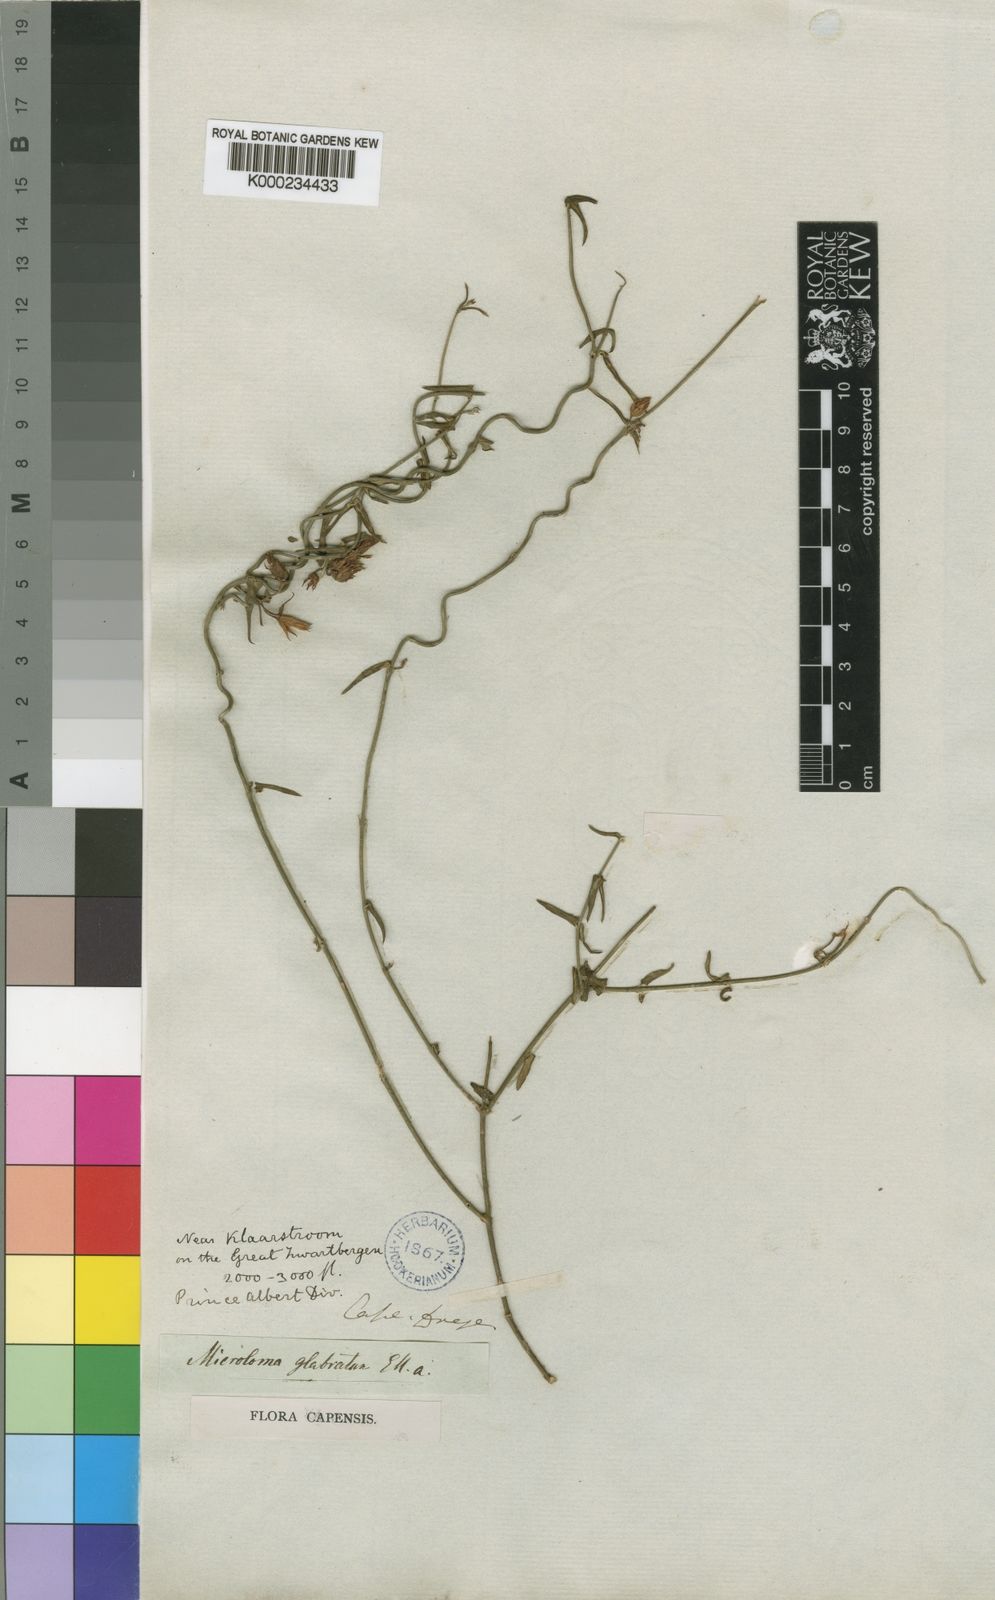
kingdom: Plantae
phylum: Tracheophyta
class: Magnoliopsida
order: Gentianales
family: Apocynaceae
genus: Microloma
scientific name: Microloma sagittatum
